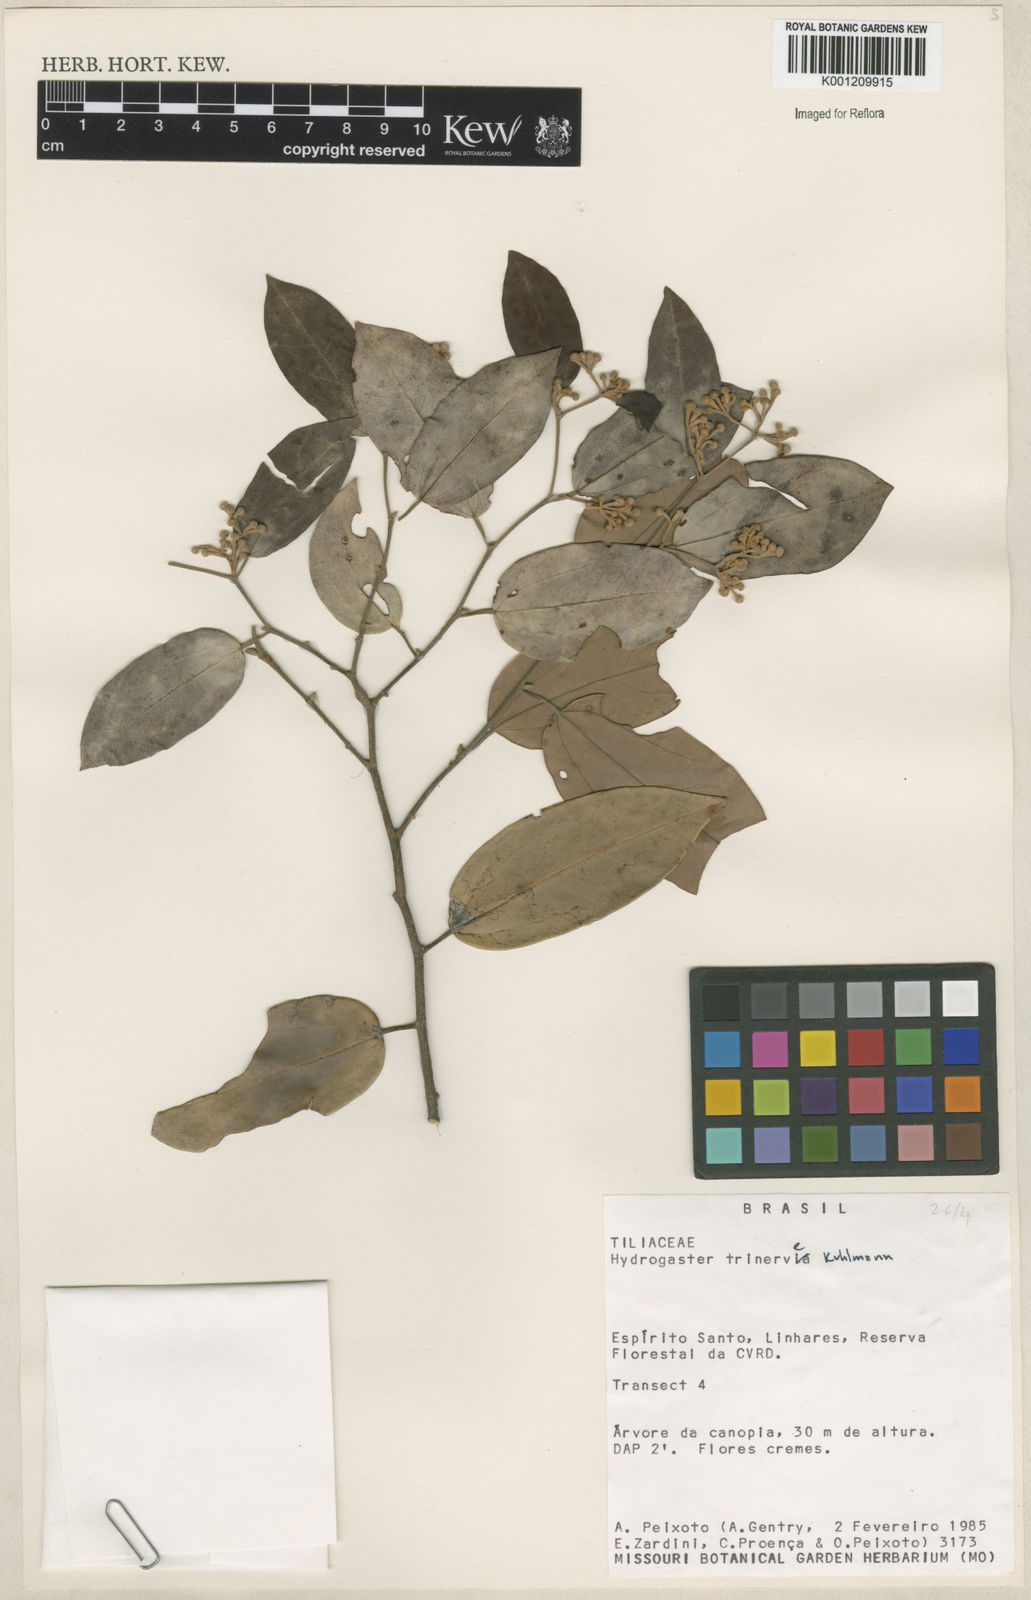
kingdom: Plantae
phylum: Tracheophyta
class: Magnoliopsida
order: Malvales
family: Malvaceae
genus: Hydrogaster
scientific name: Hydrogaster trinervis
